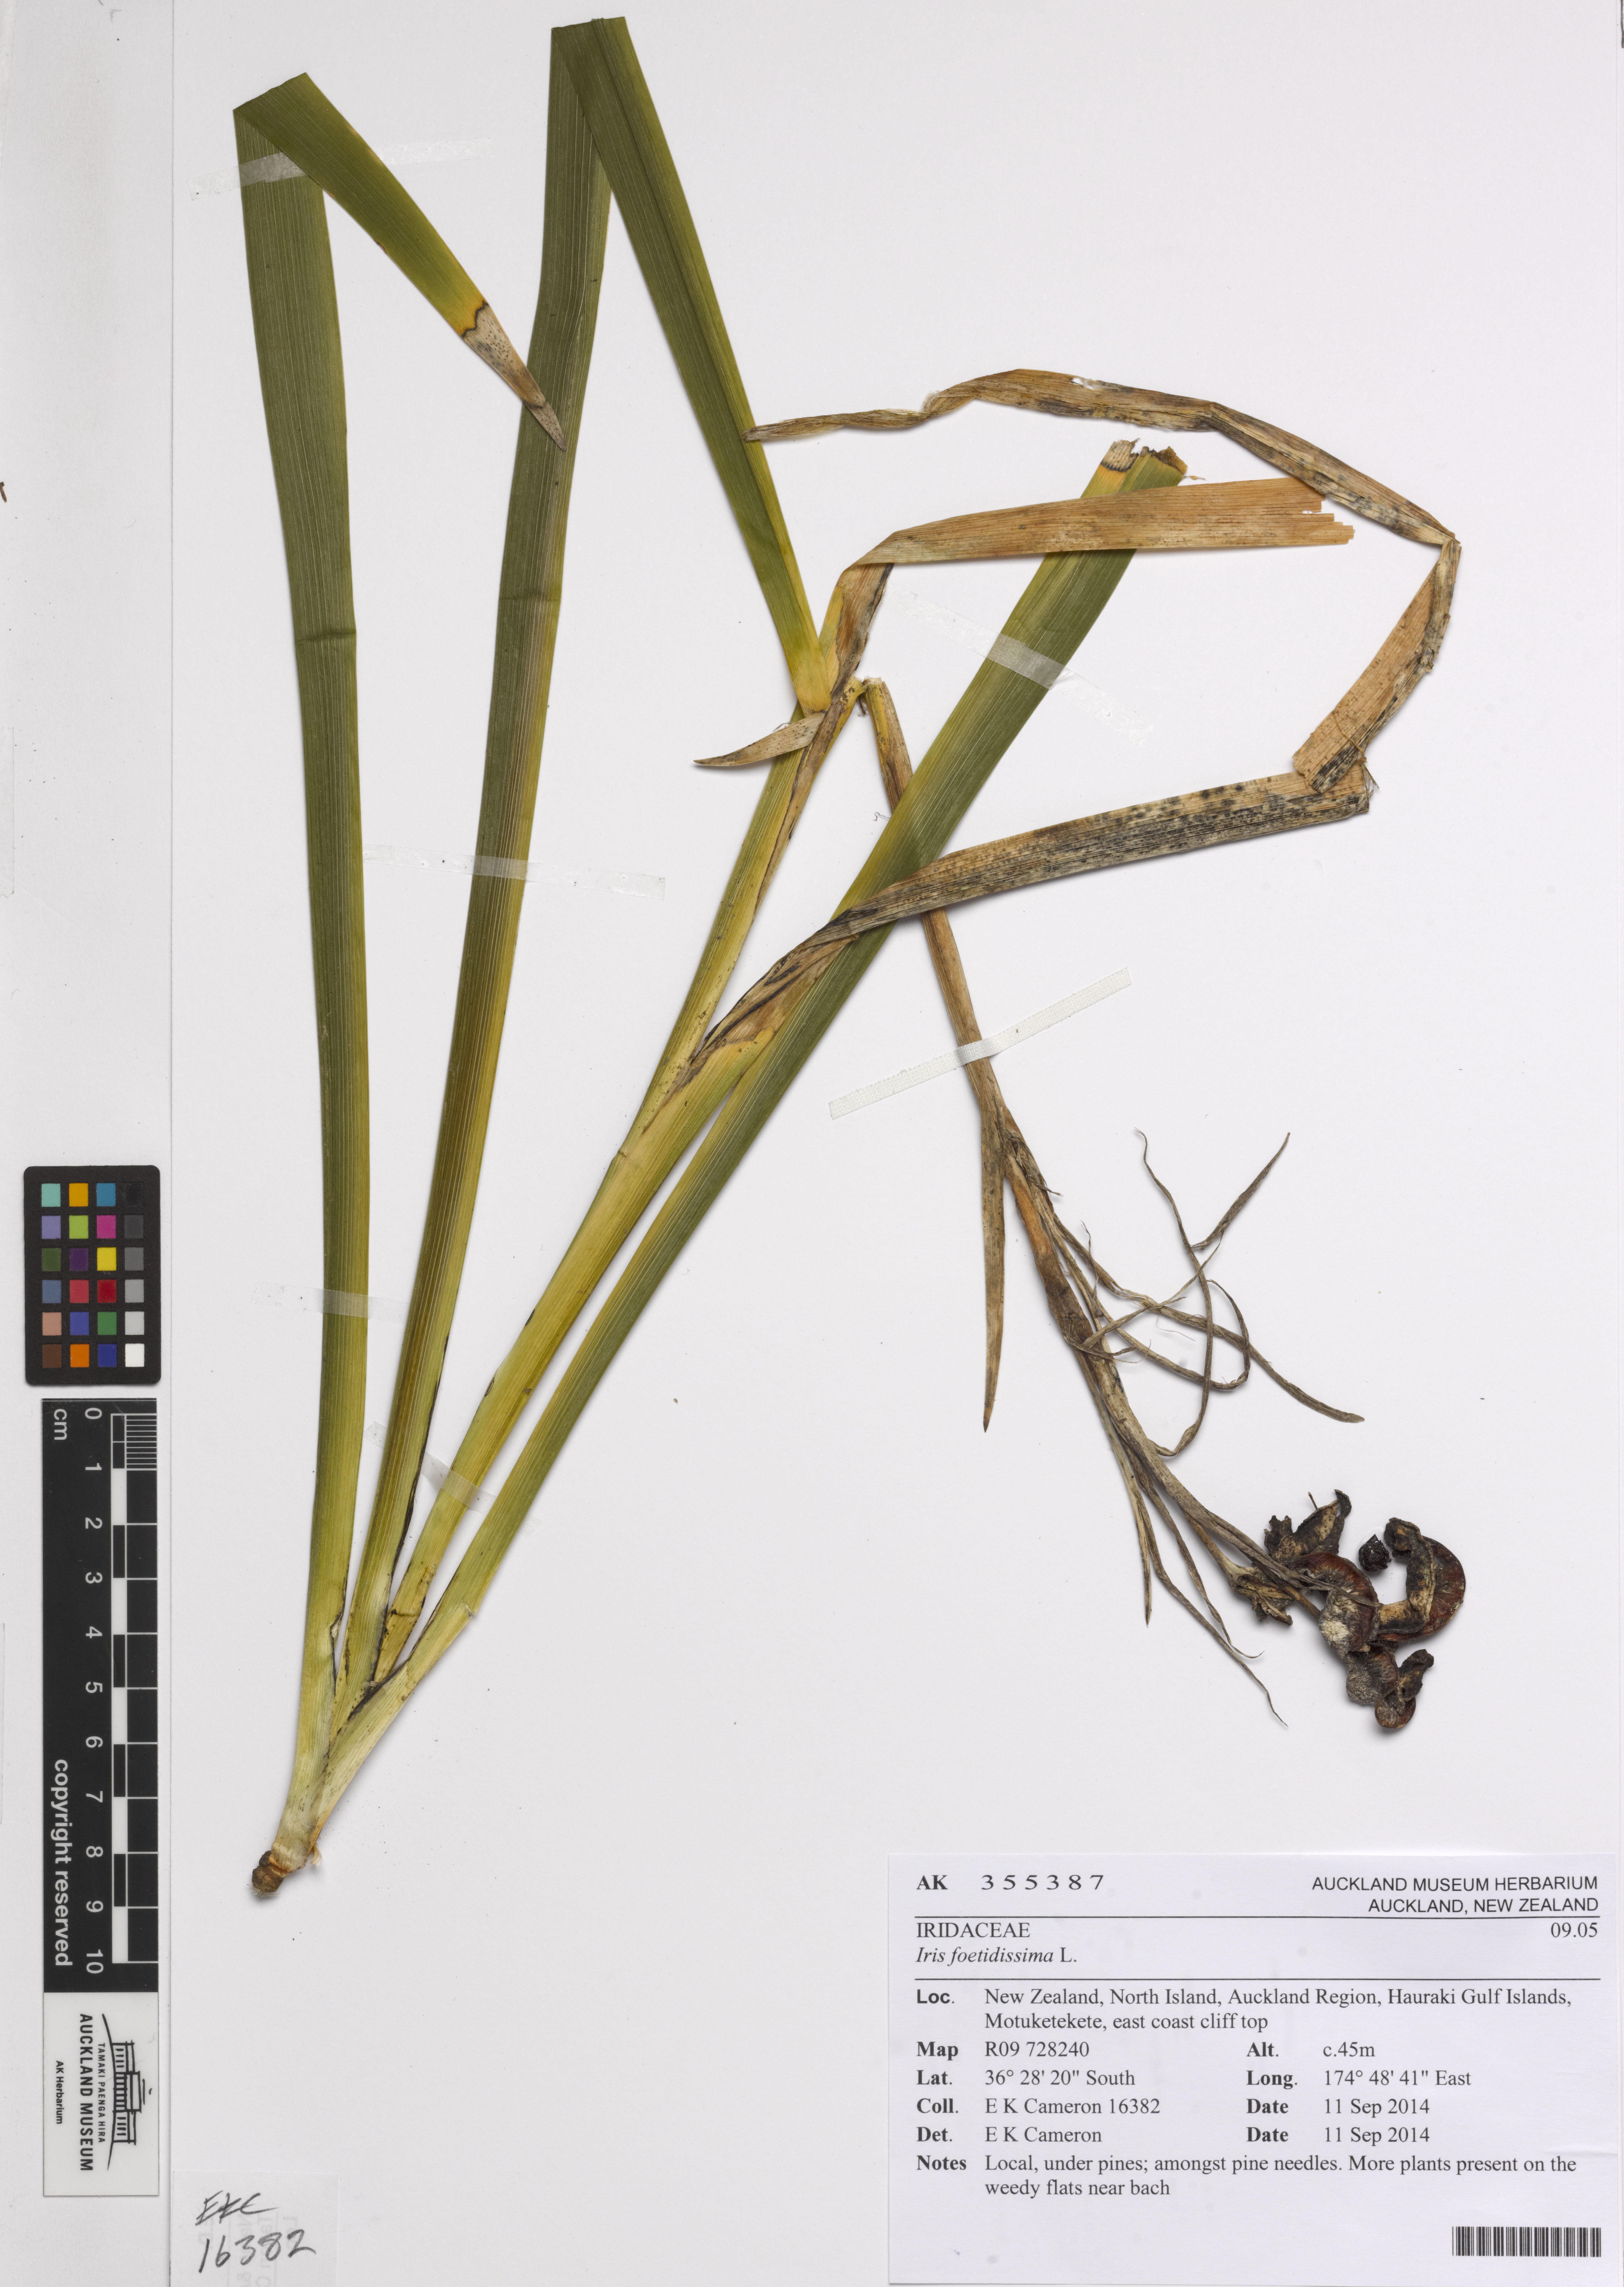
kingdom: Plantae
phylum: Tracheophyta
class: Liliopsida
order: Asparagales
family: Iridaceae
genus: Iris
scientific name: Iris foetidissima
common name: Stinking iris
